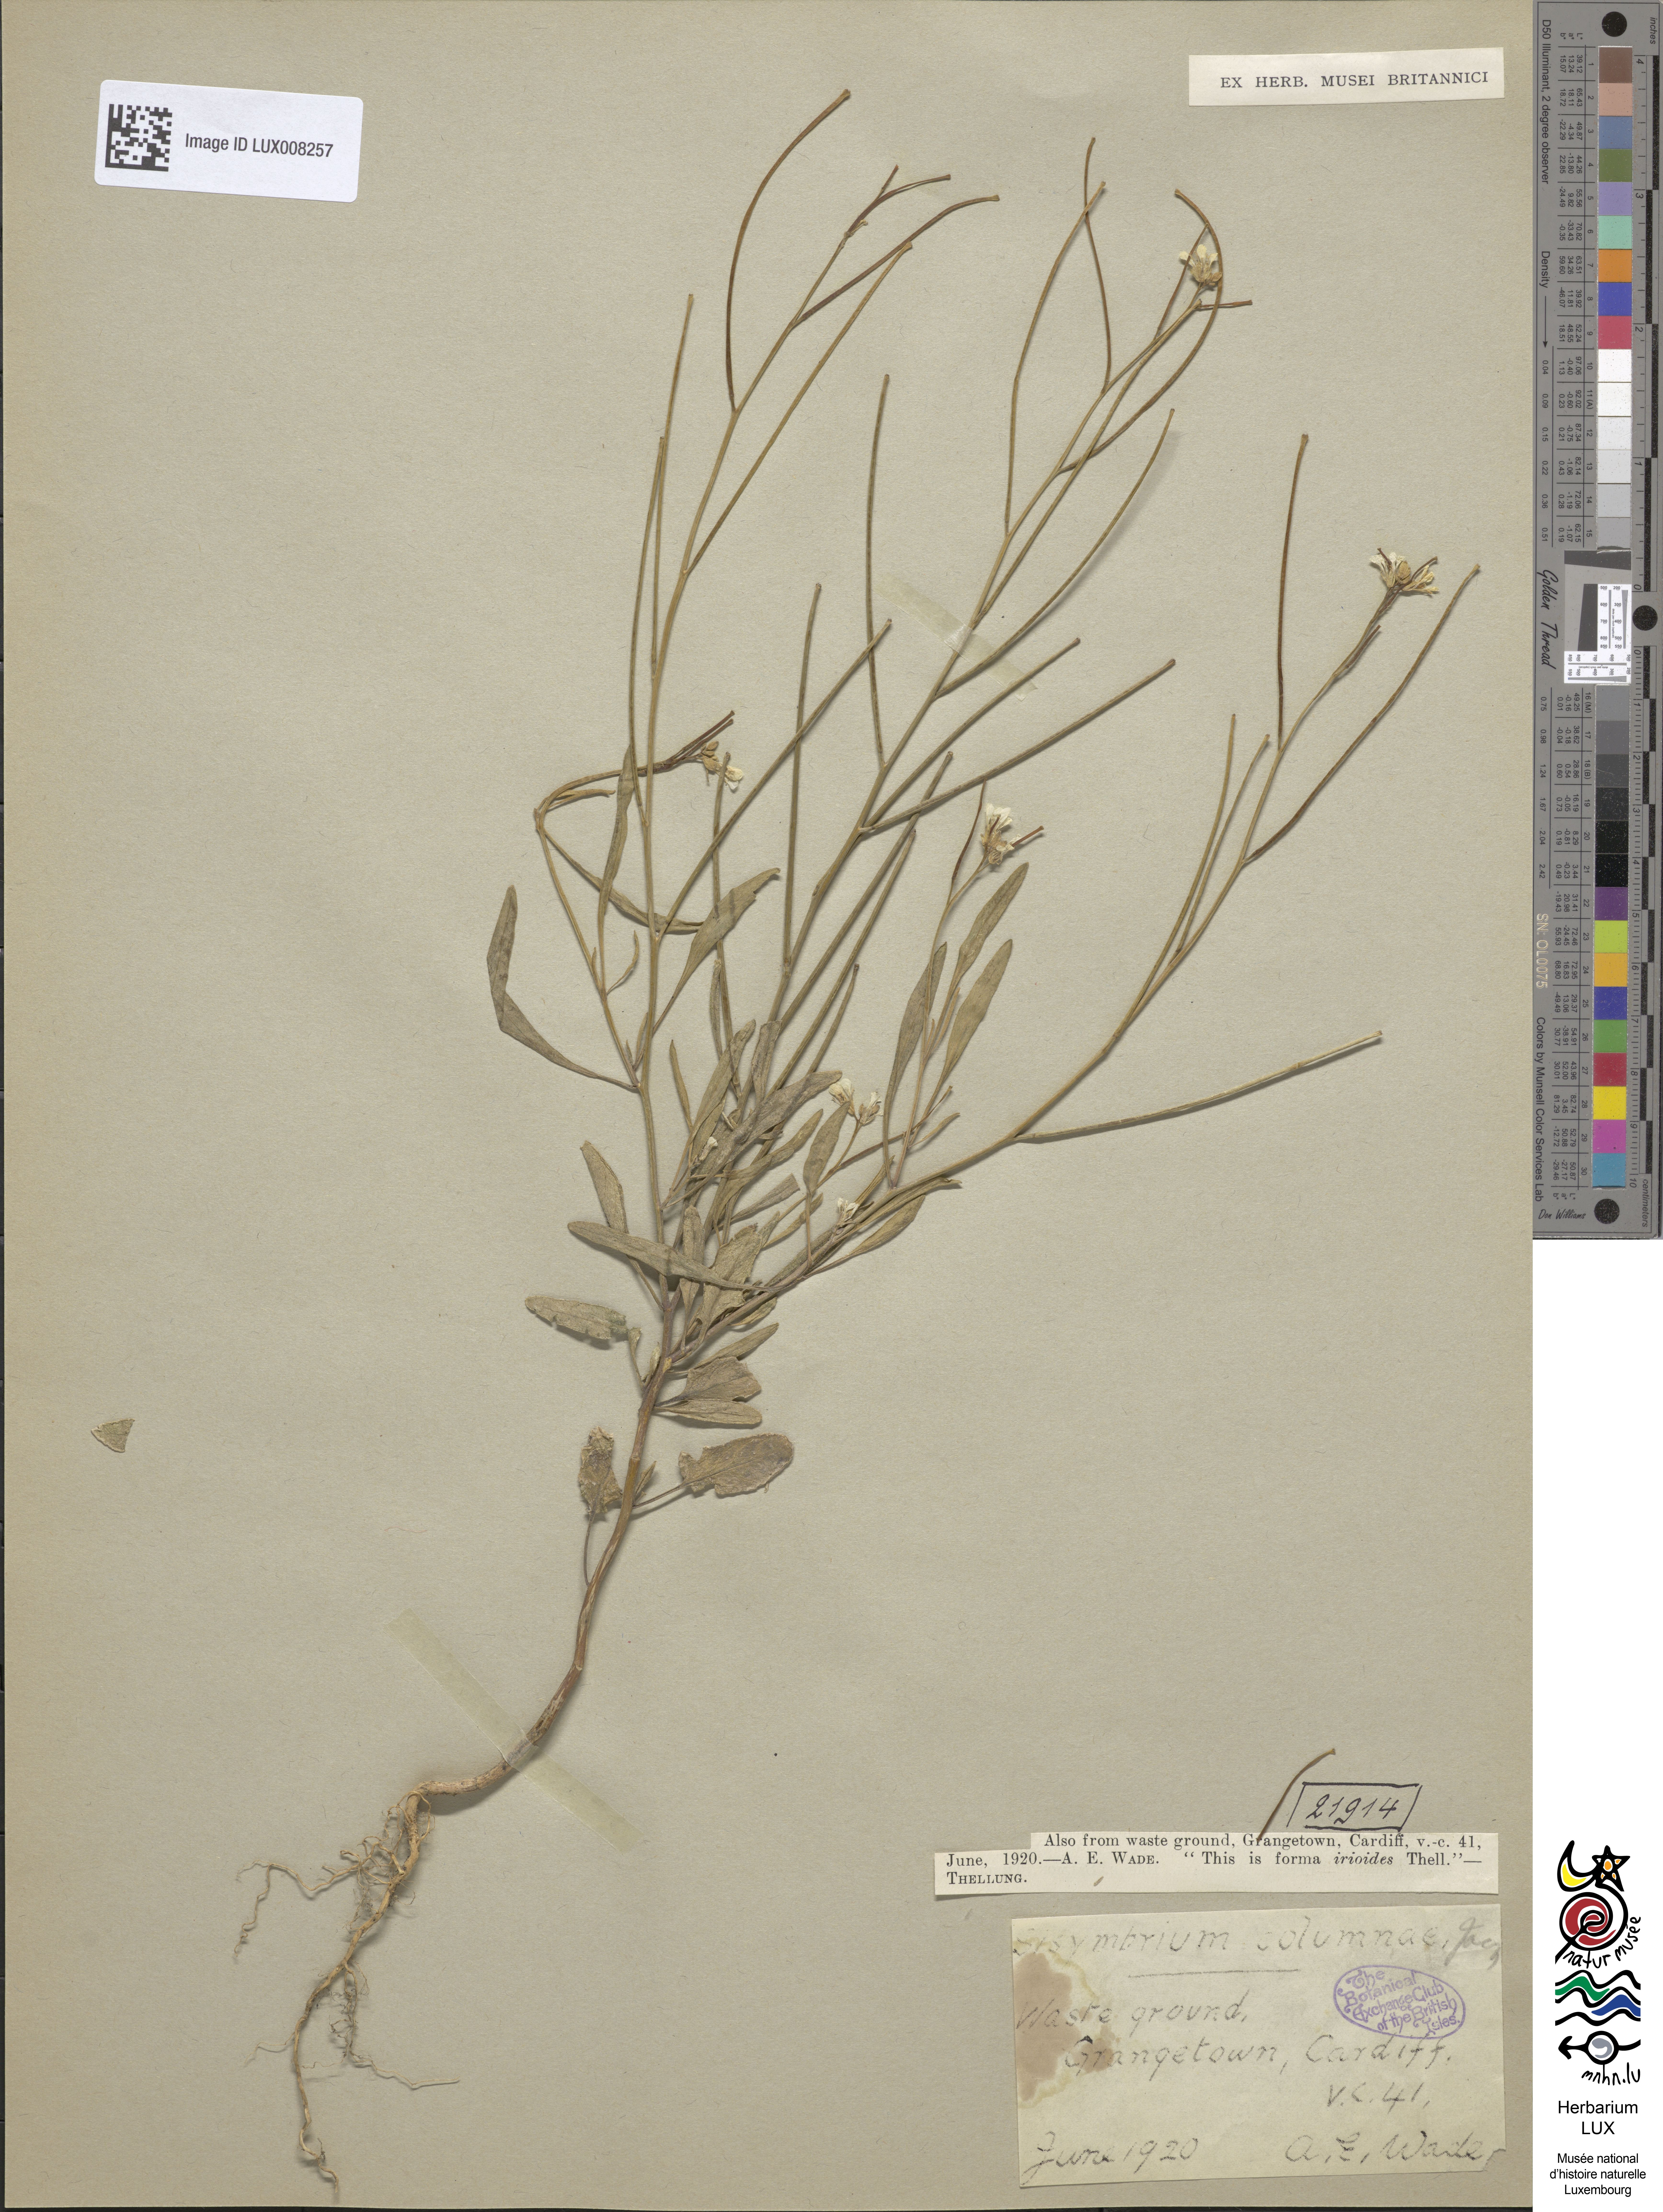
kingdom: Plantae
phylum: Tracheophyta
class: Magnoliopsida
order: Brassicales
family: Brassicaceae
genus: Sisymbrium
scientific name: Sisymbrium orientale
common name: Eastern rocket
